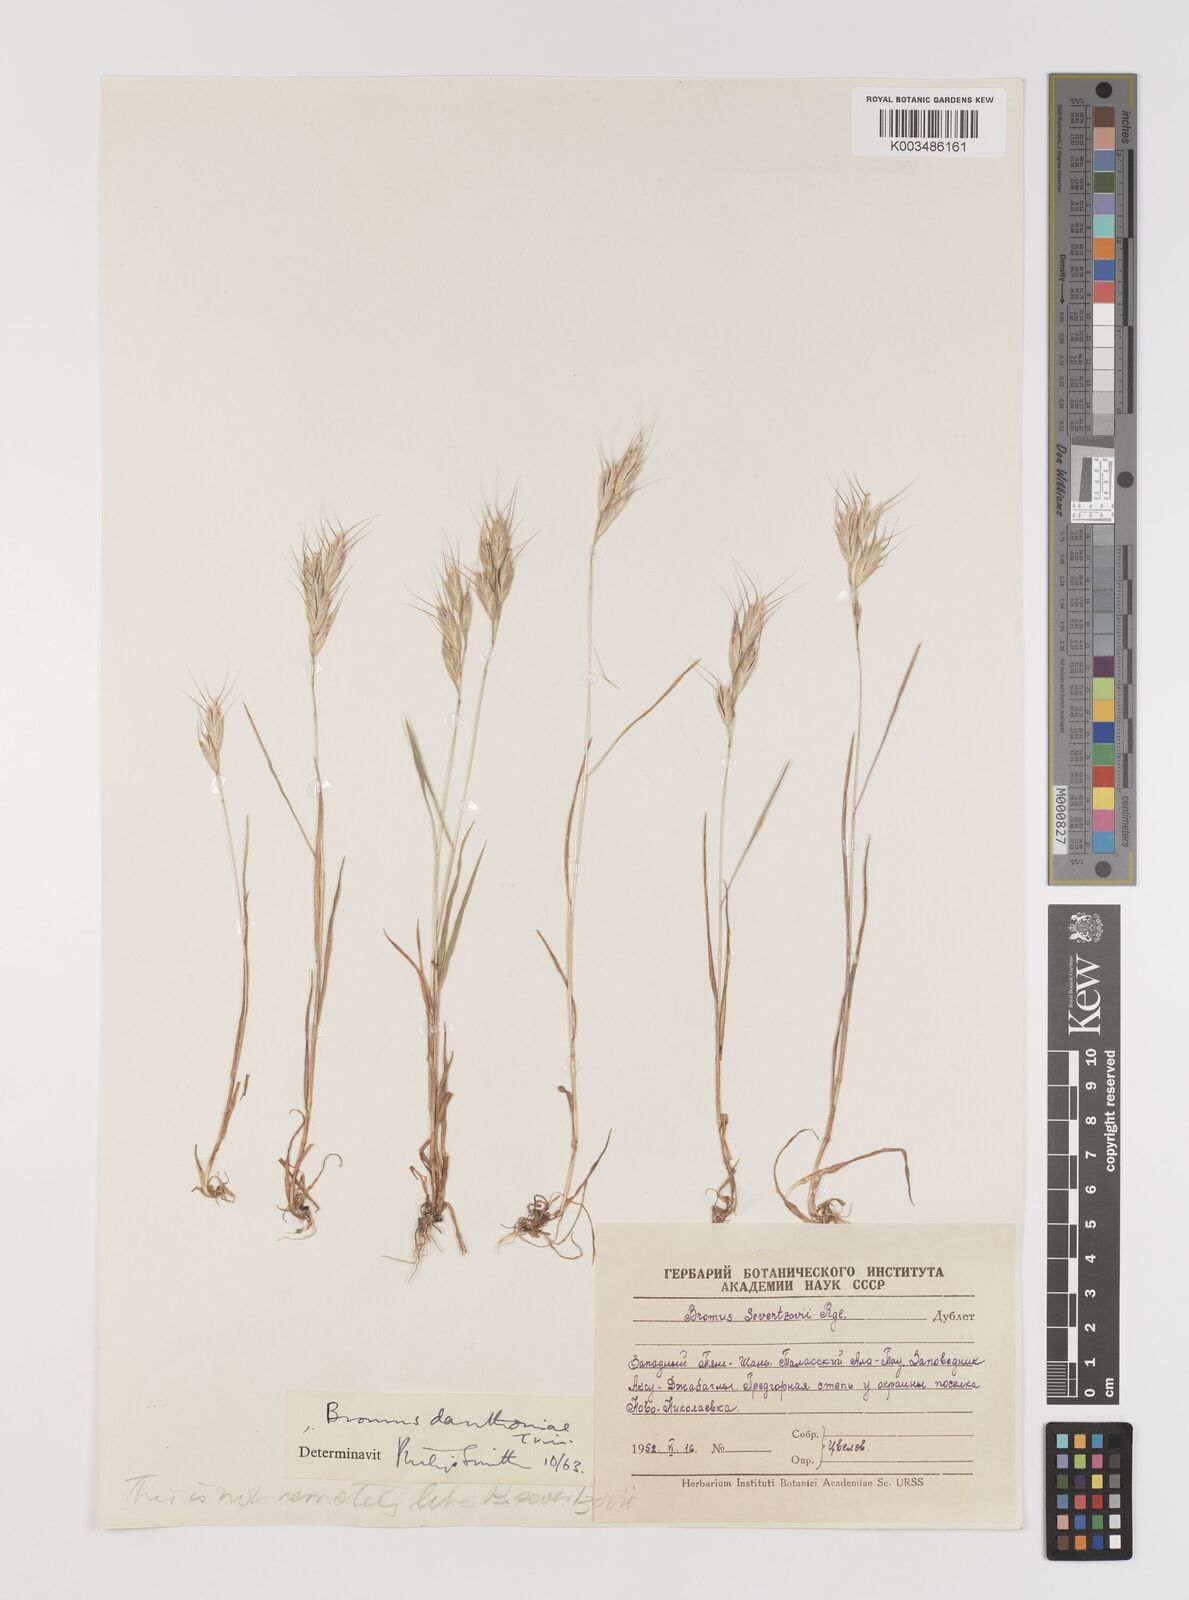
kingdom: Plantae
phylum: Tracheophyta
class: Liliopsida
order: Poales
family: Poaceae
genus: Bromus
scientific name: Bromus danthoniae
